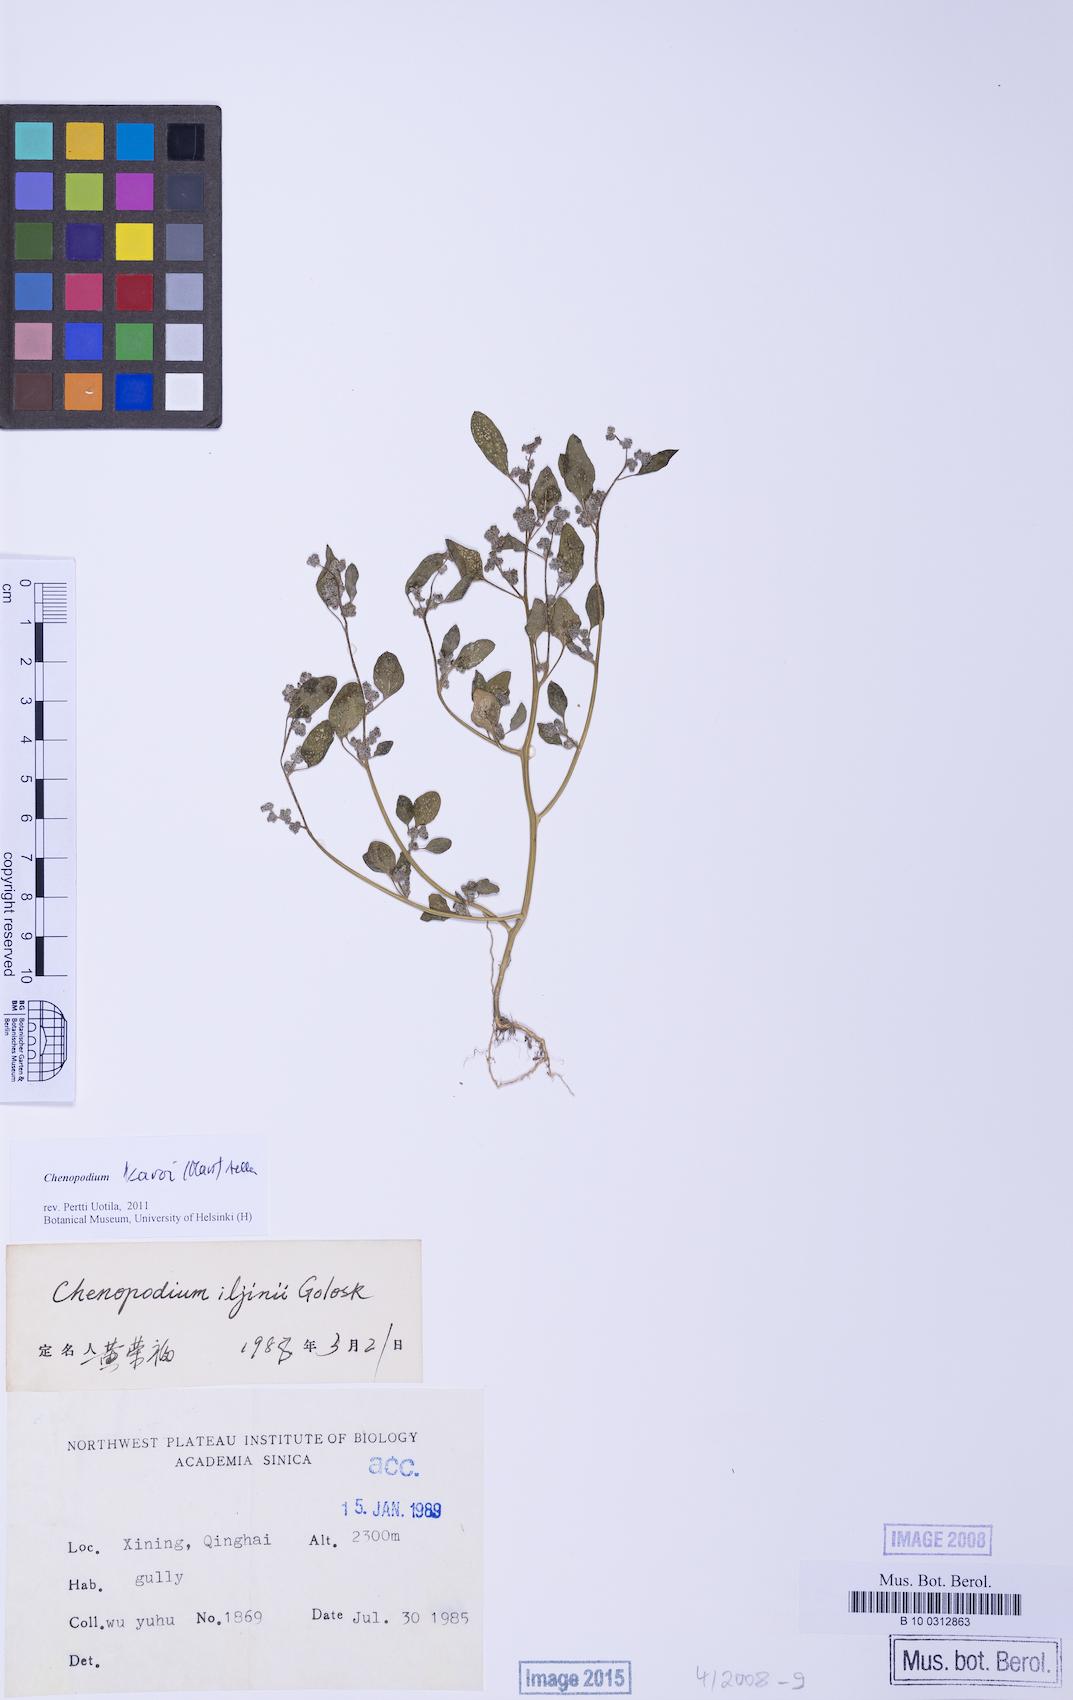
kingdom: Plantae
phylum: Tracheophyta
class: Magnoliopsida
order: Caryophyllales
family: Amaranthaceae
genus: Corispermum
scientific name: Corispermum iljinii
